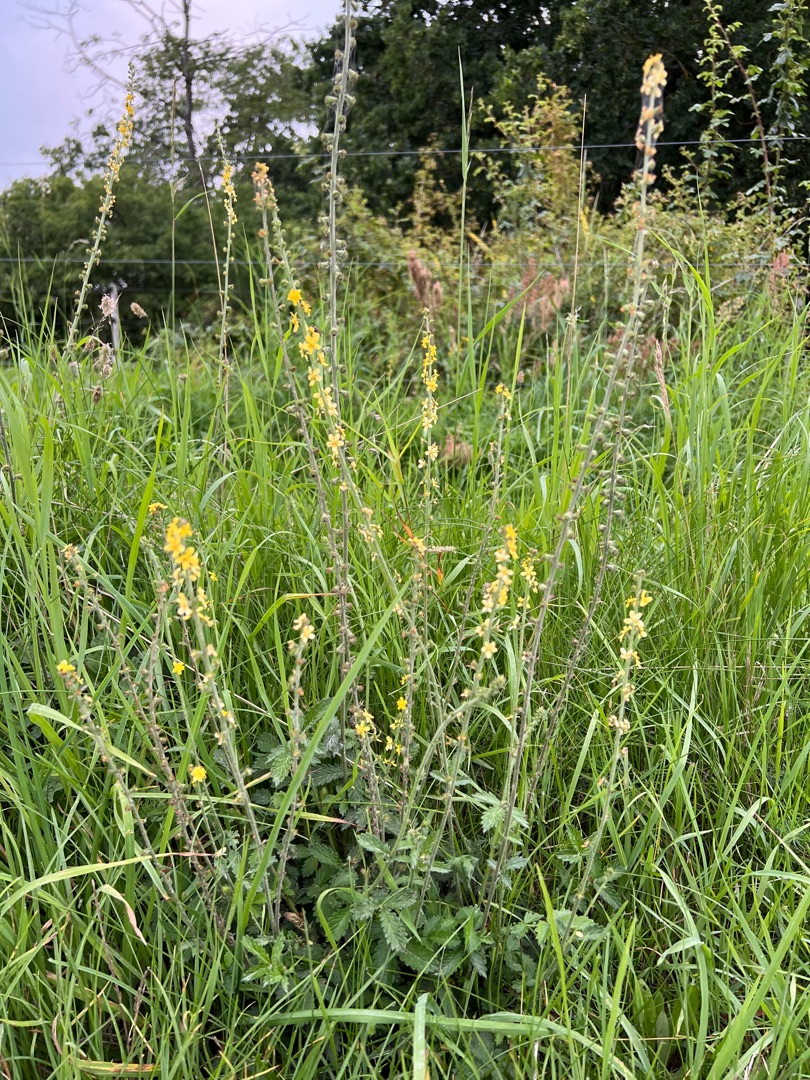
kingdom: Plantae
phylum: Tracheophyta
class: Magnoliopsida
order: Rosales
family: Rosaceae
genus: Agrimonia
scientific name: Agrimonia
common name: Agermåneslægten
